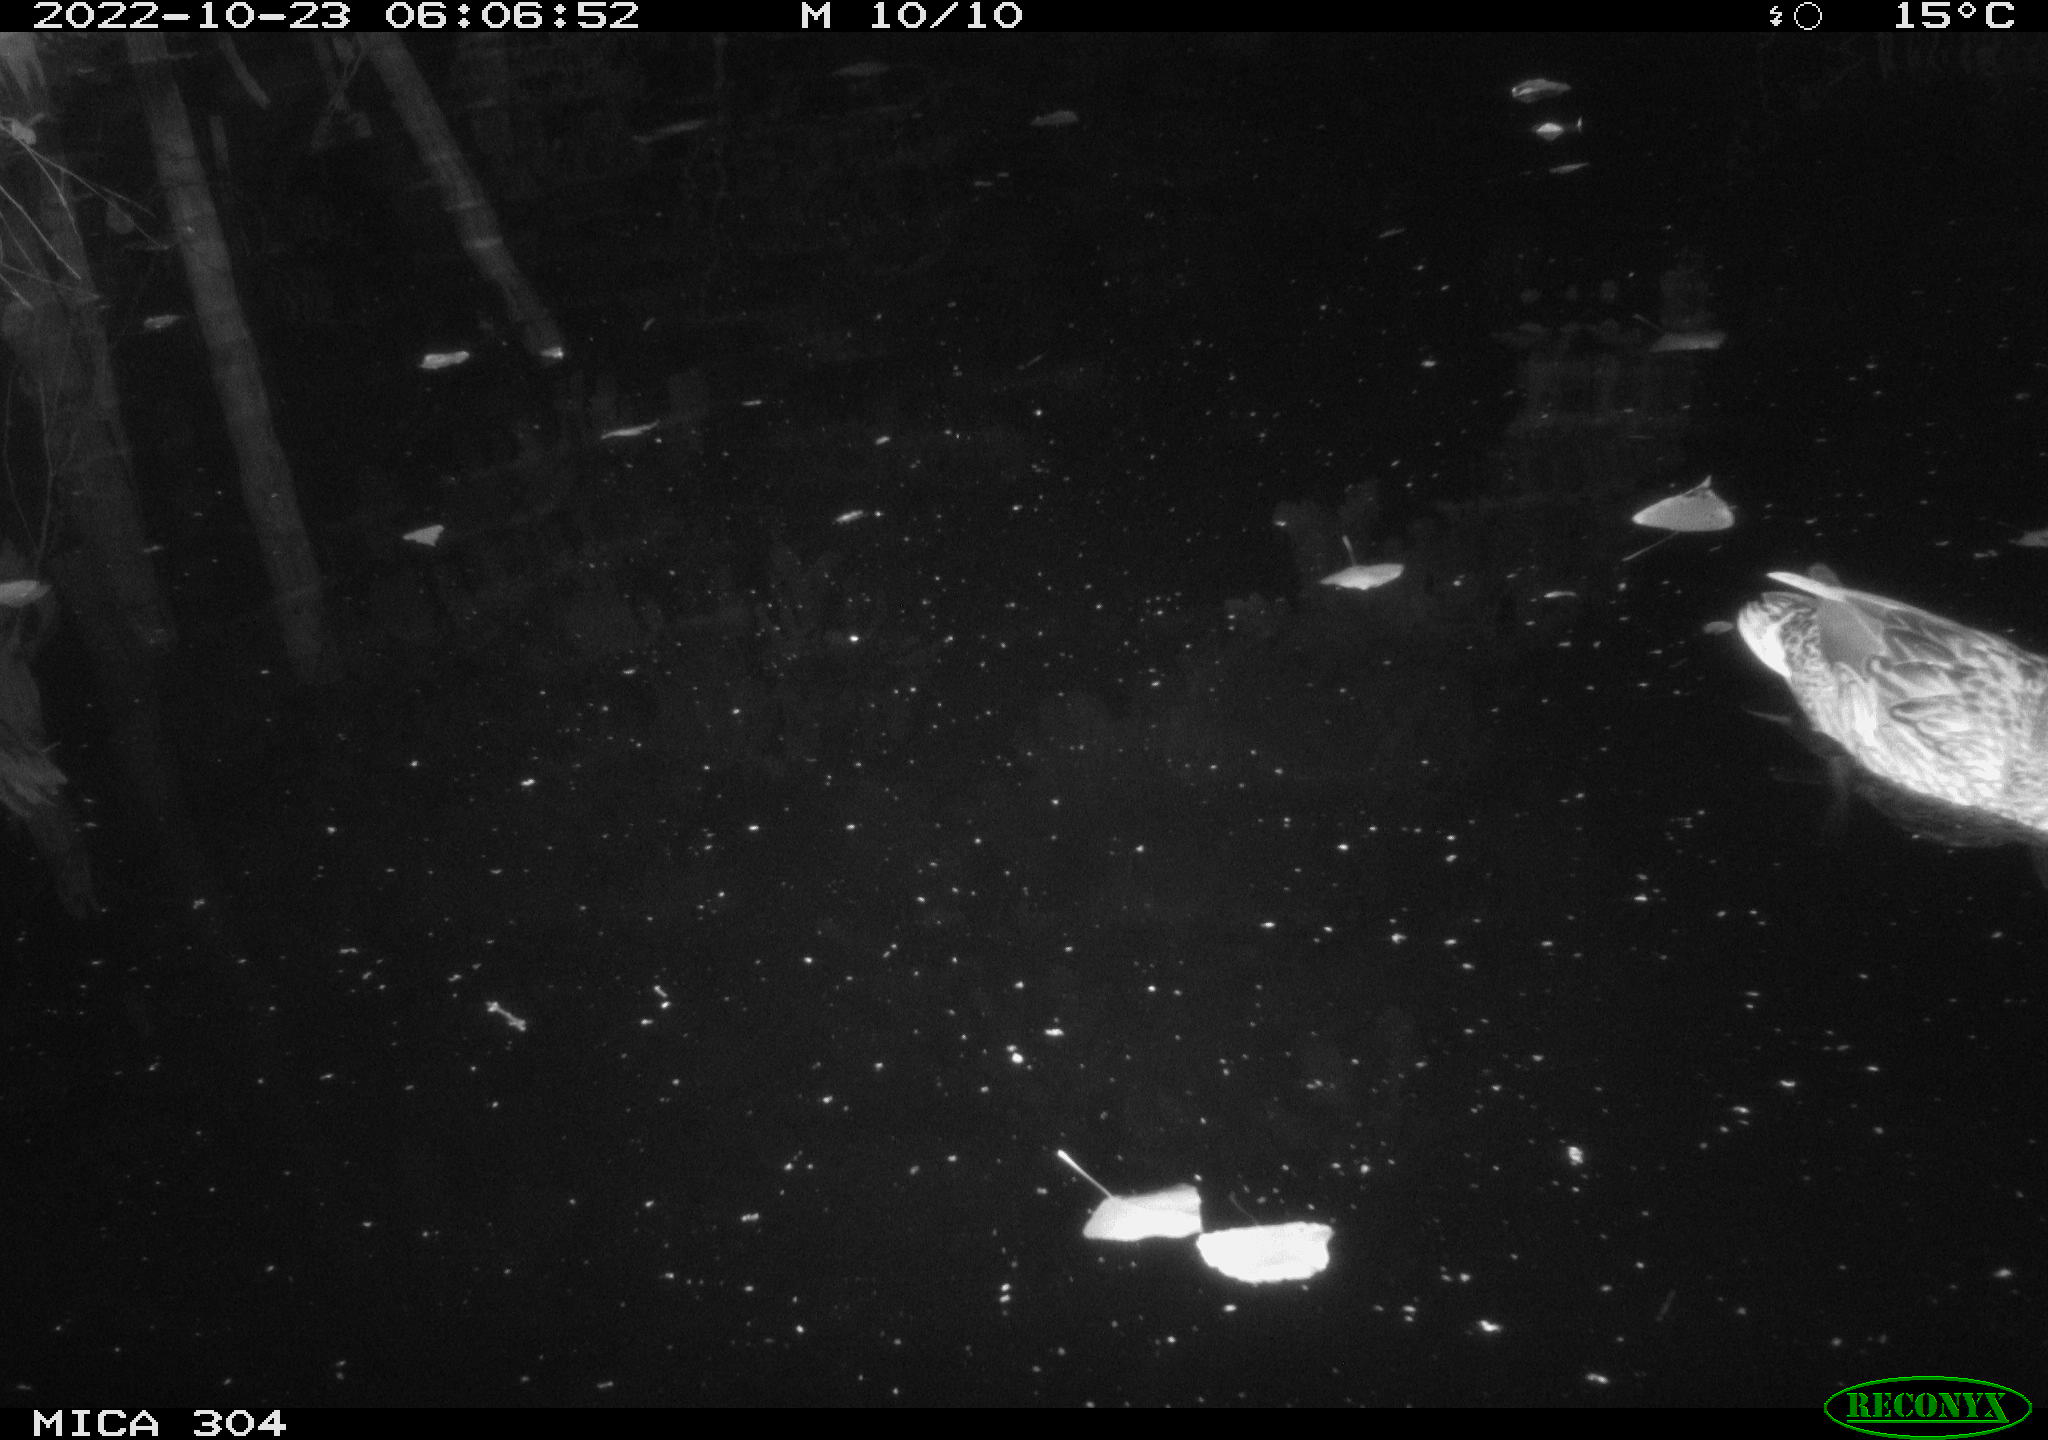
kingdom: Animalia
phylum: Chordata
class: Aves
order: Anseriformes
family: Anatidae
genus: Anas
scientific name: Anas
